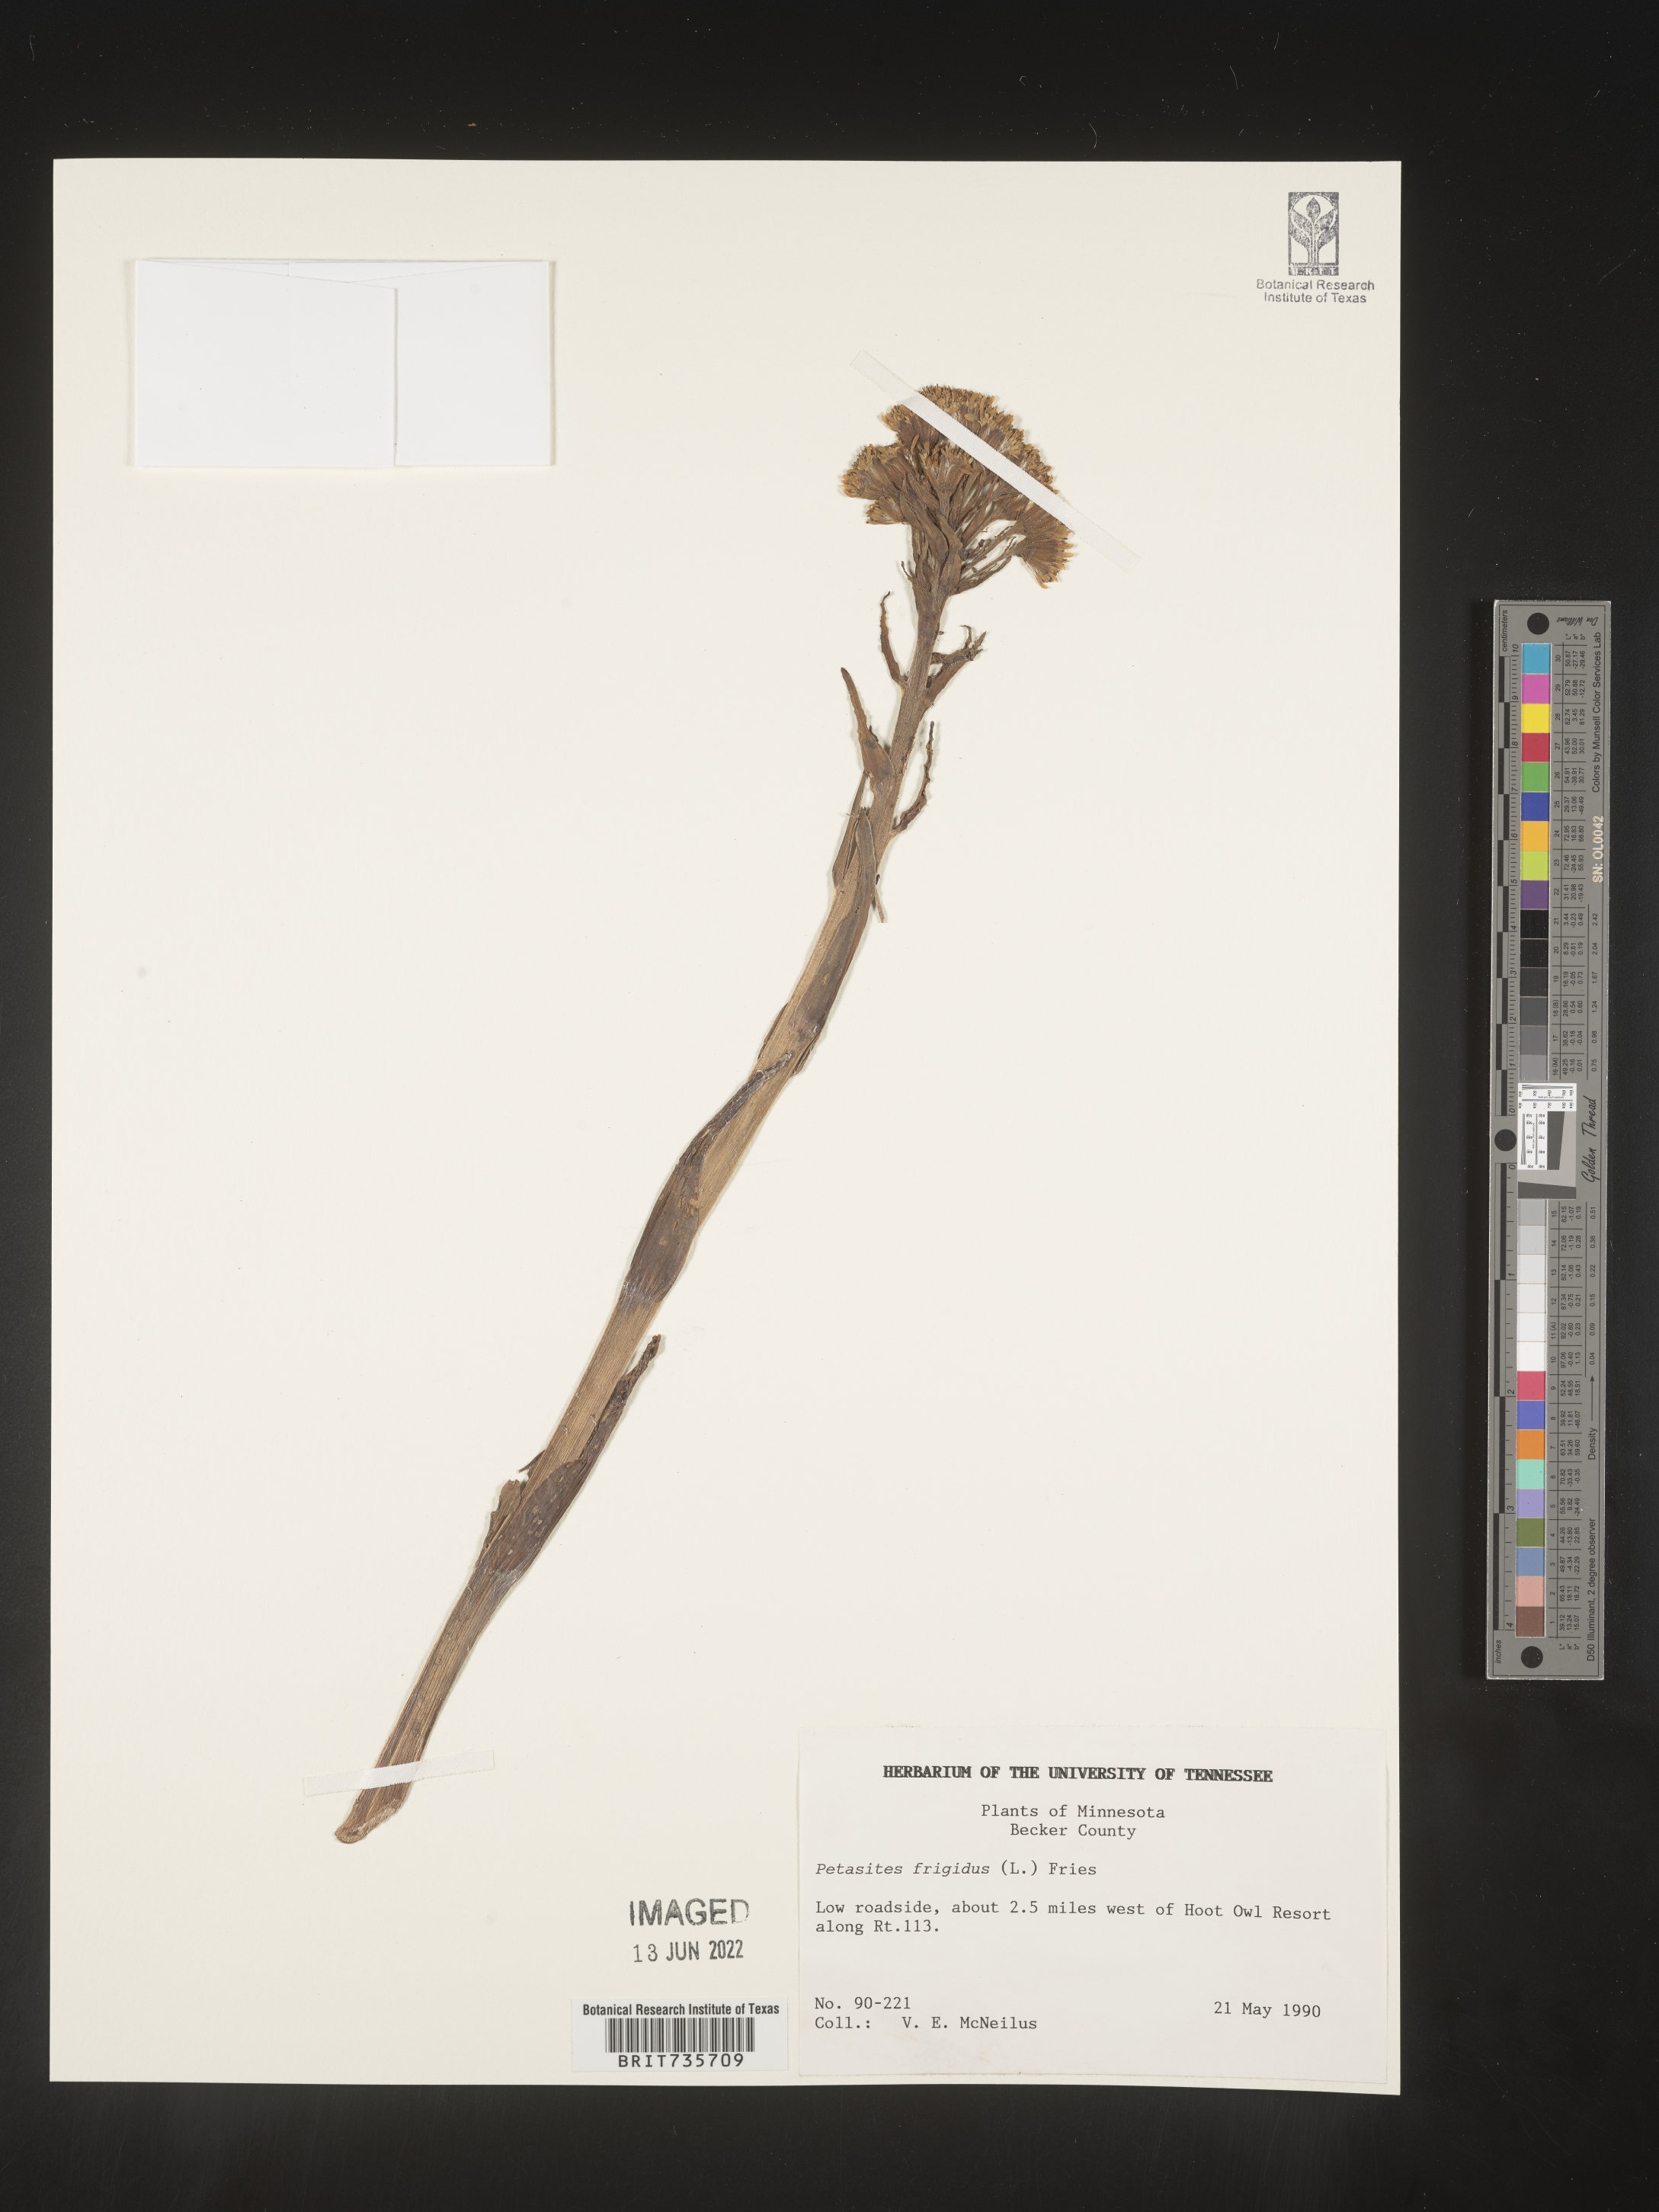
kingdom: Plantae
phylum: Tracheophyta
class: Magnoliopsida
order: Asterales
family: Asteraceae
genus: Petasites
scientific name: Petasites frigidus
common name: Arctic butterbur
